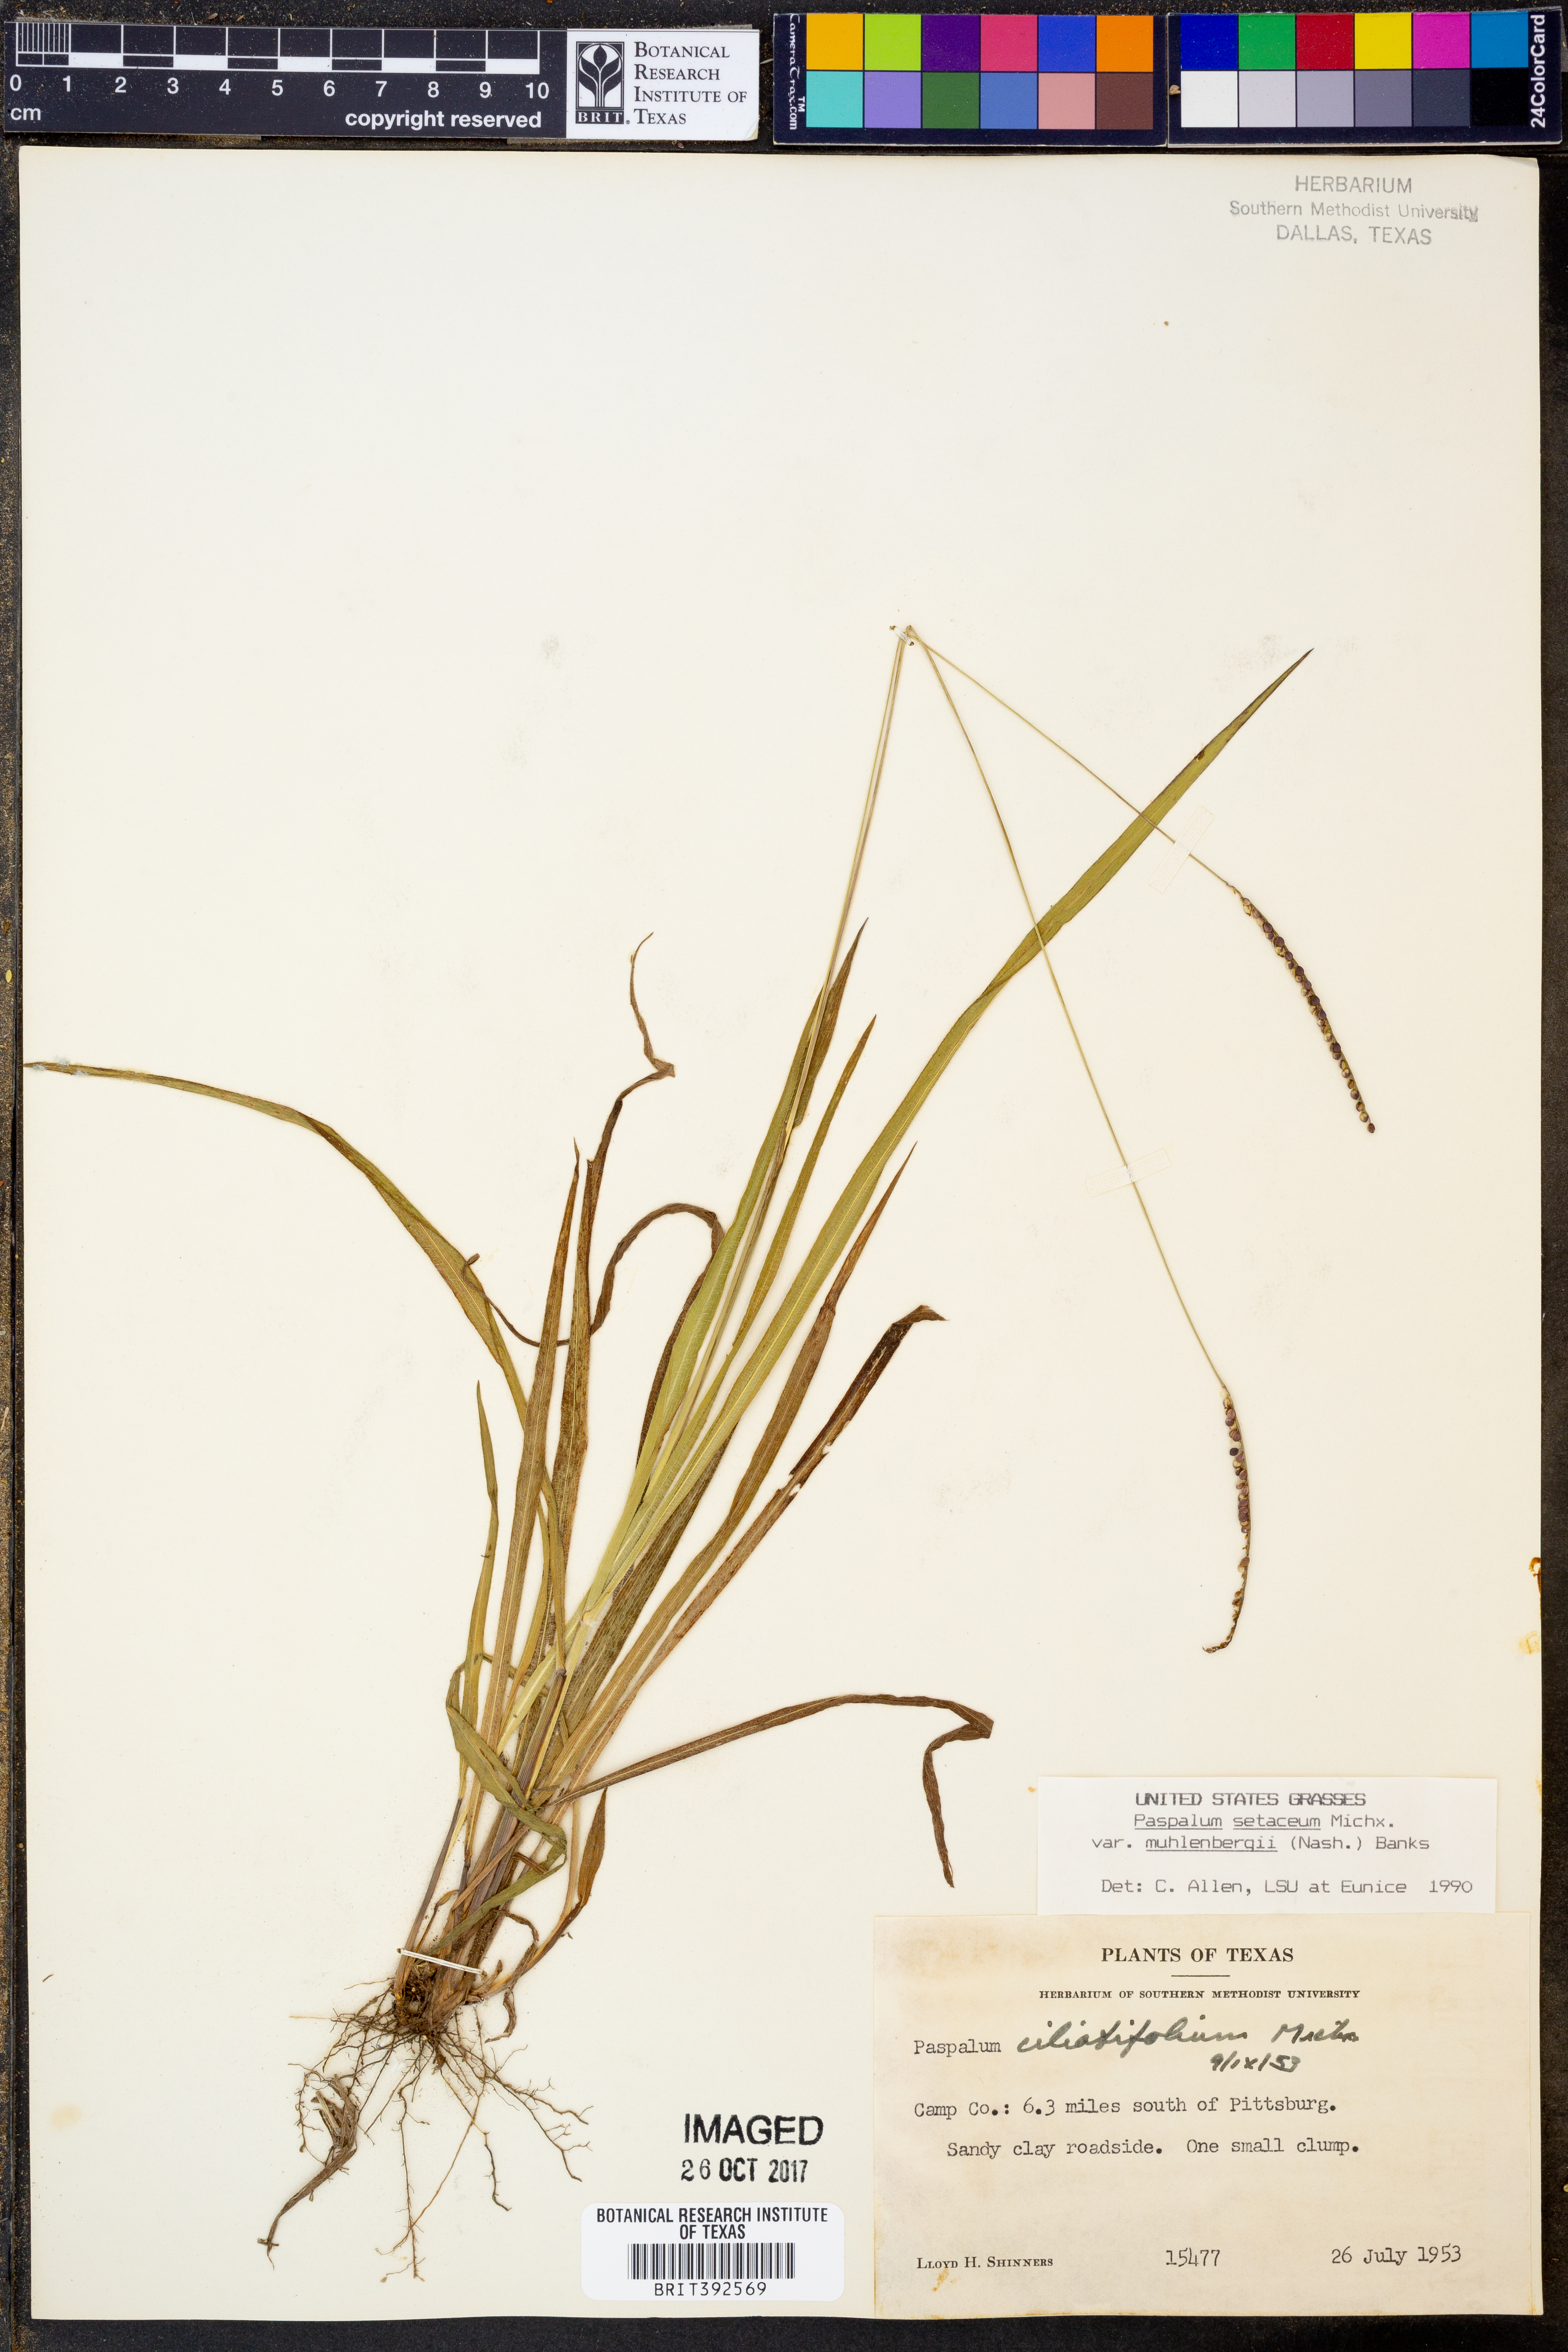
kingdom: Plantae
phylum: Tracheophyta
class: Liliopsida
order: Poales
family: Poaceae
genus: Paspalum
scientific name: Paspalum setaceum
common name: Slender paspalum
